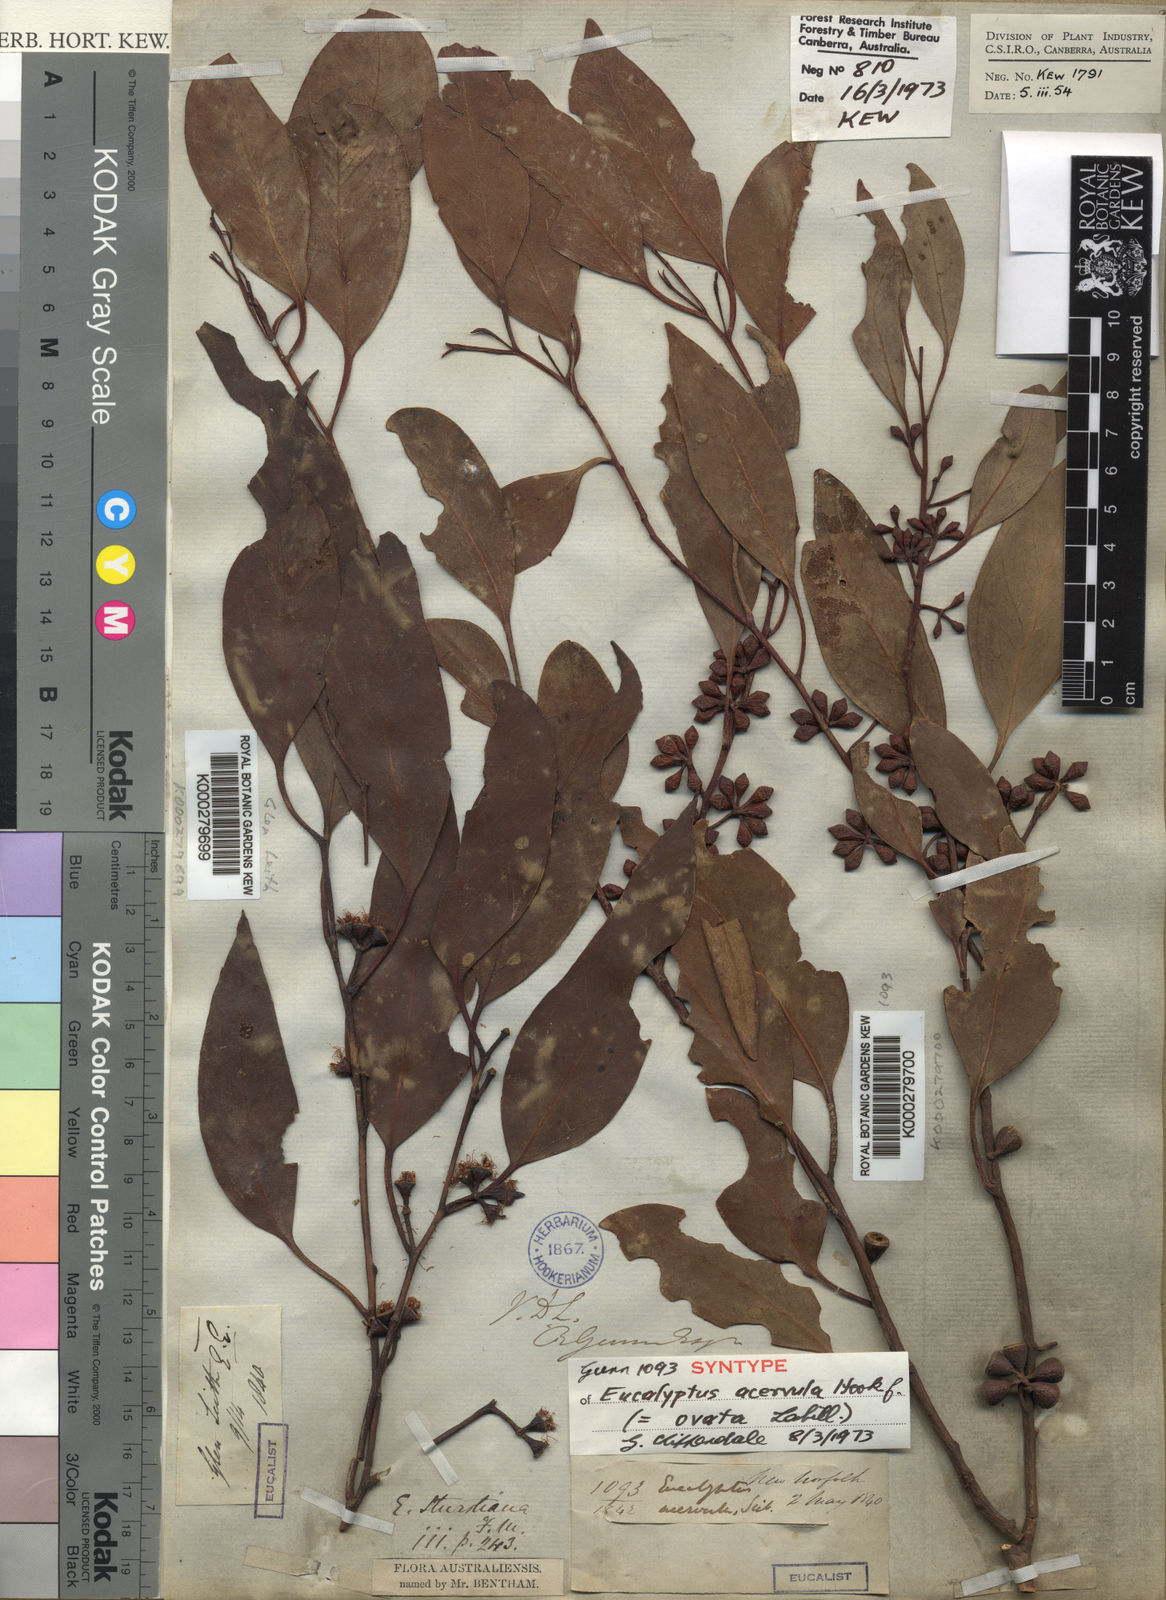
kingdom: Plantae
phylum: Tracheophyta
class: Magnoliopsida
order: Myrtales
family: Myrtaceae
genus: Eucalyptus
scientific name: Eucalyptus ovata
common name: Black-gum
